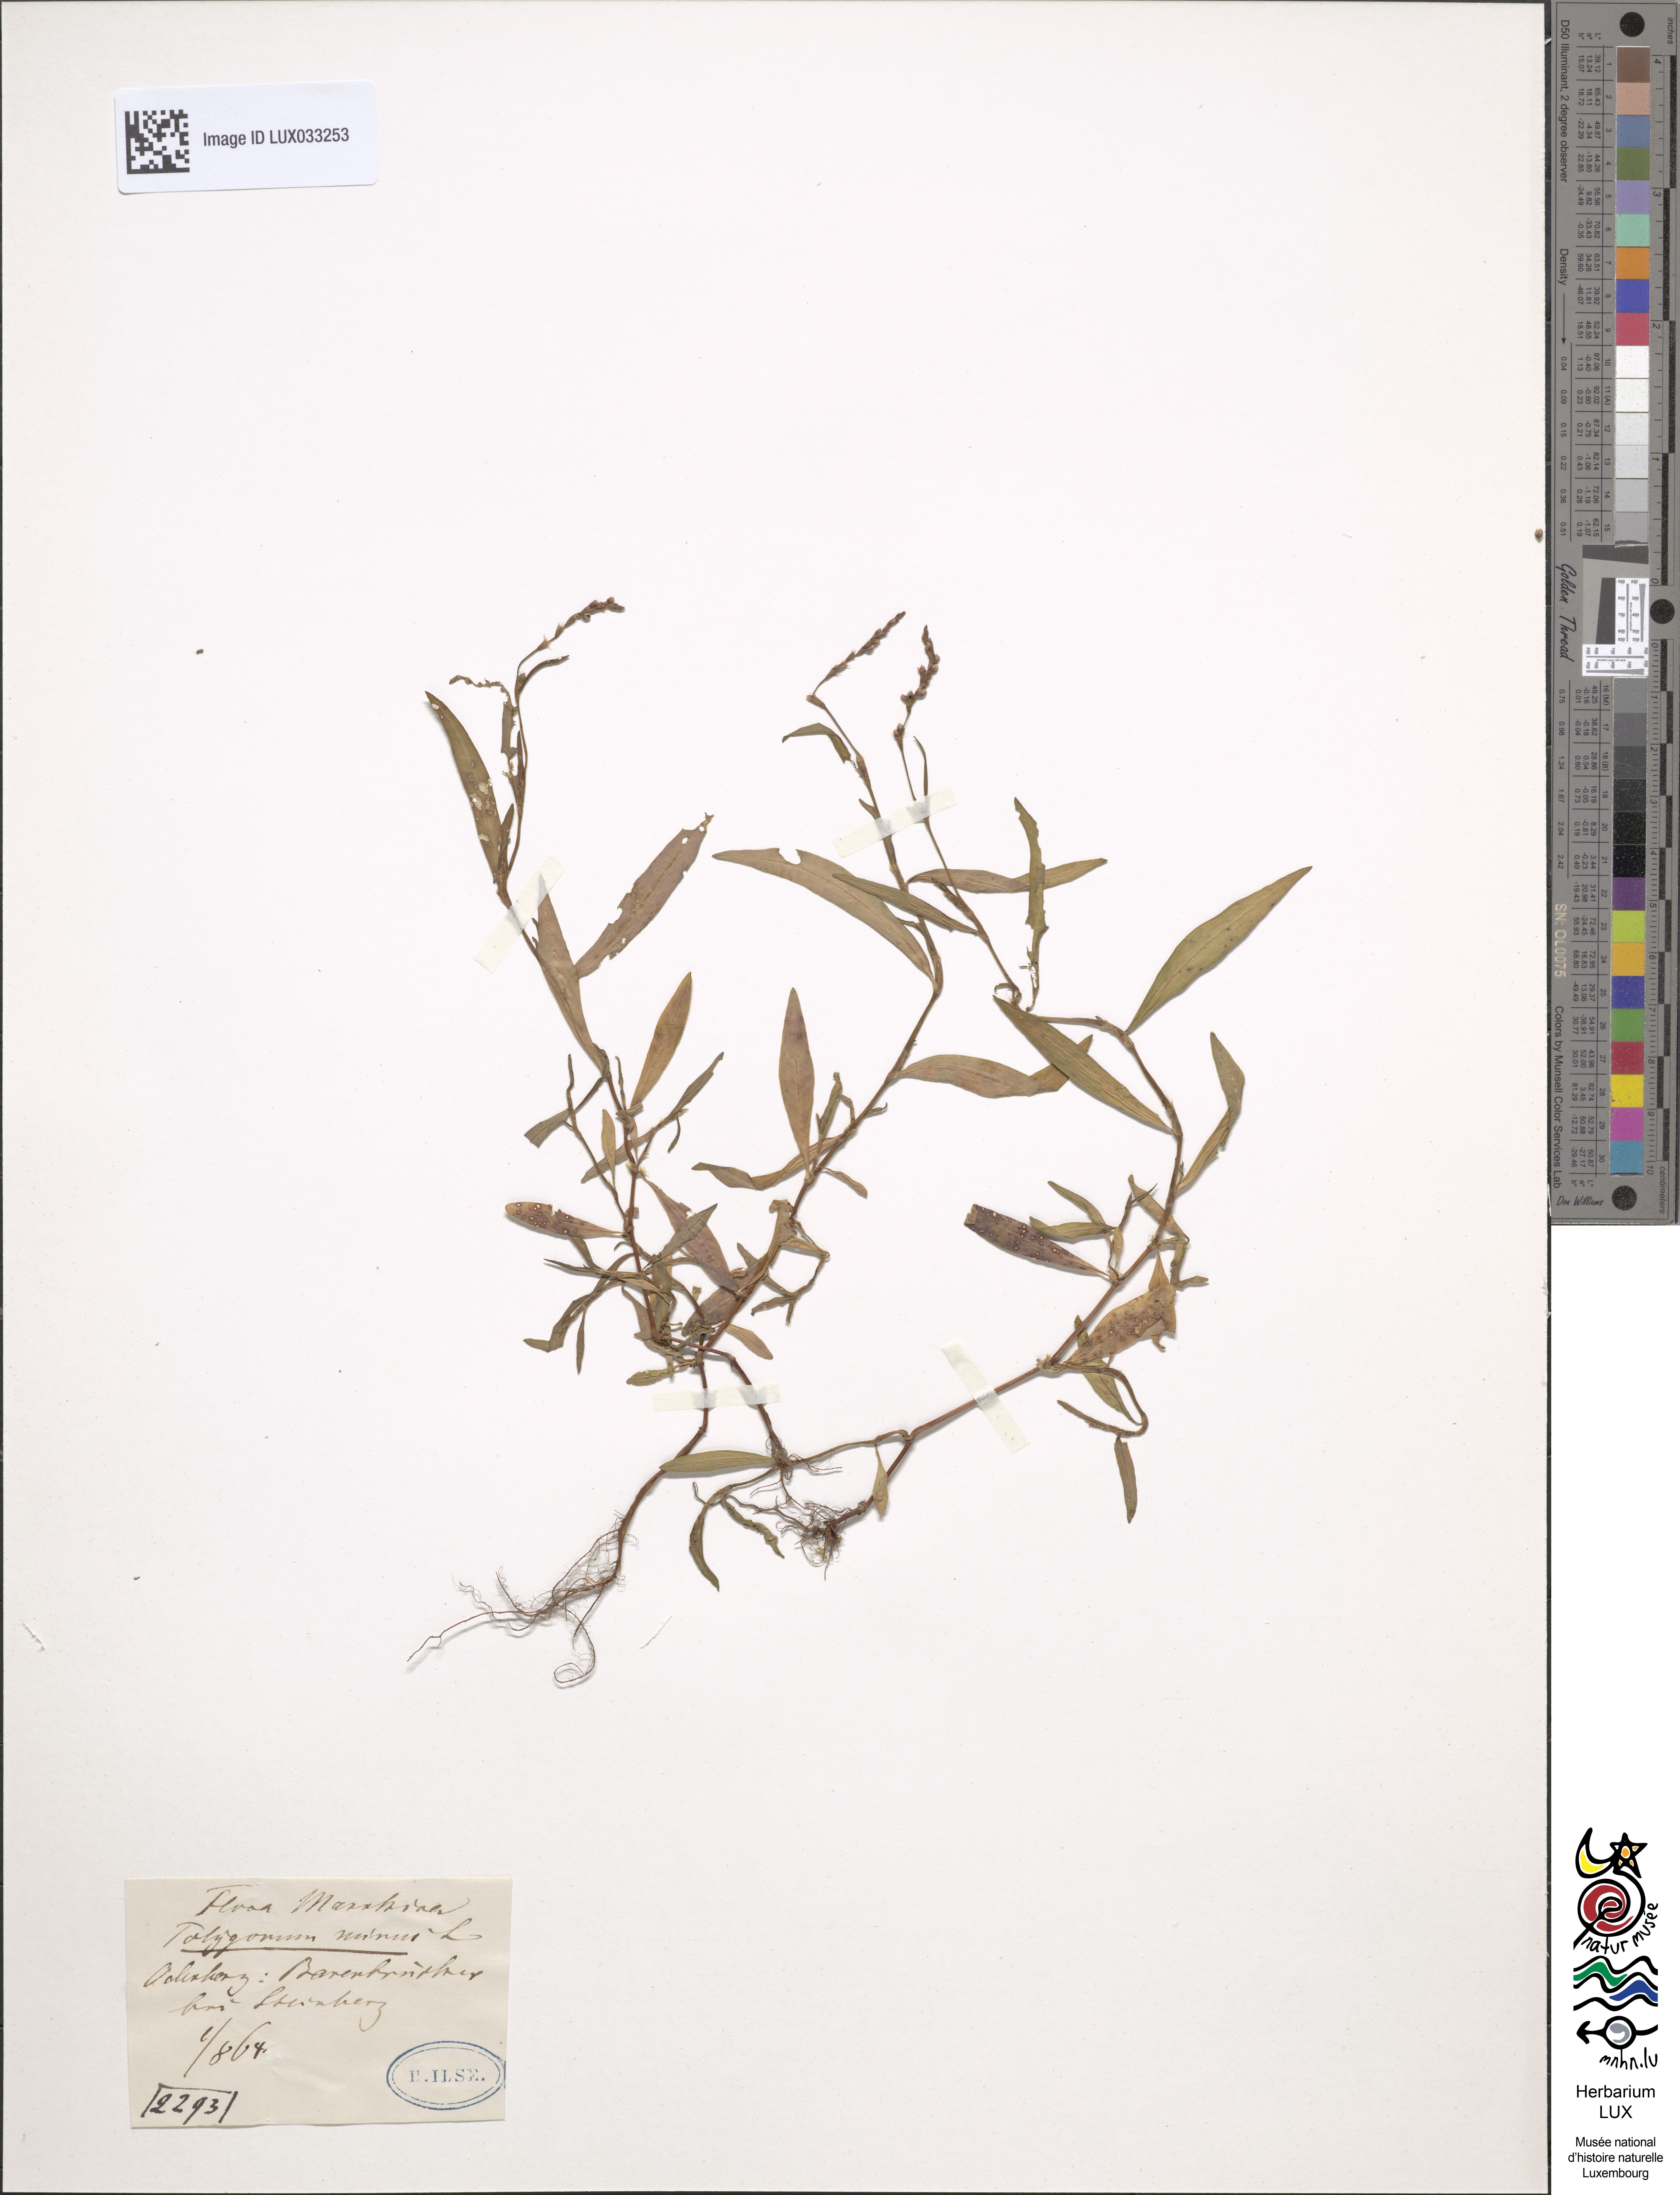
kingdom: Plantae
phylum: Tracheophyta
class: Magnoliopsida
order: Caryophyllales
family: Polygonaceae
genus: Persicaria
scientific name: Persicaria minor
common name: Small water-pepper
